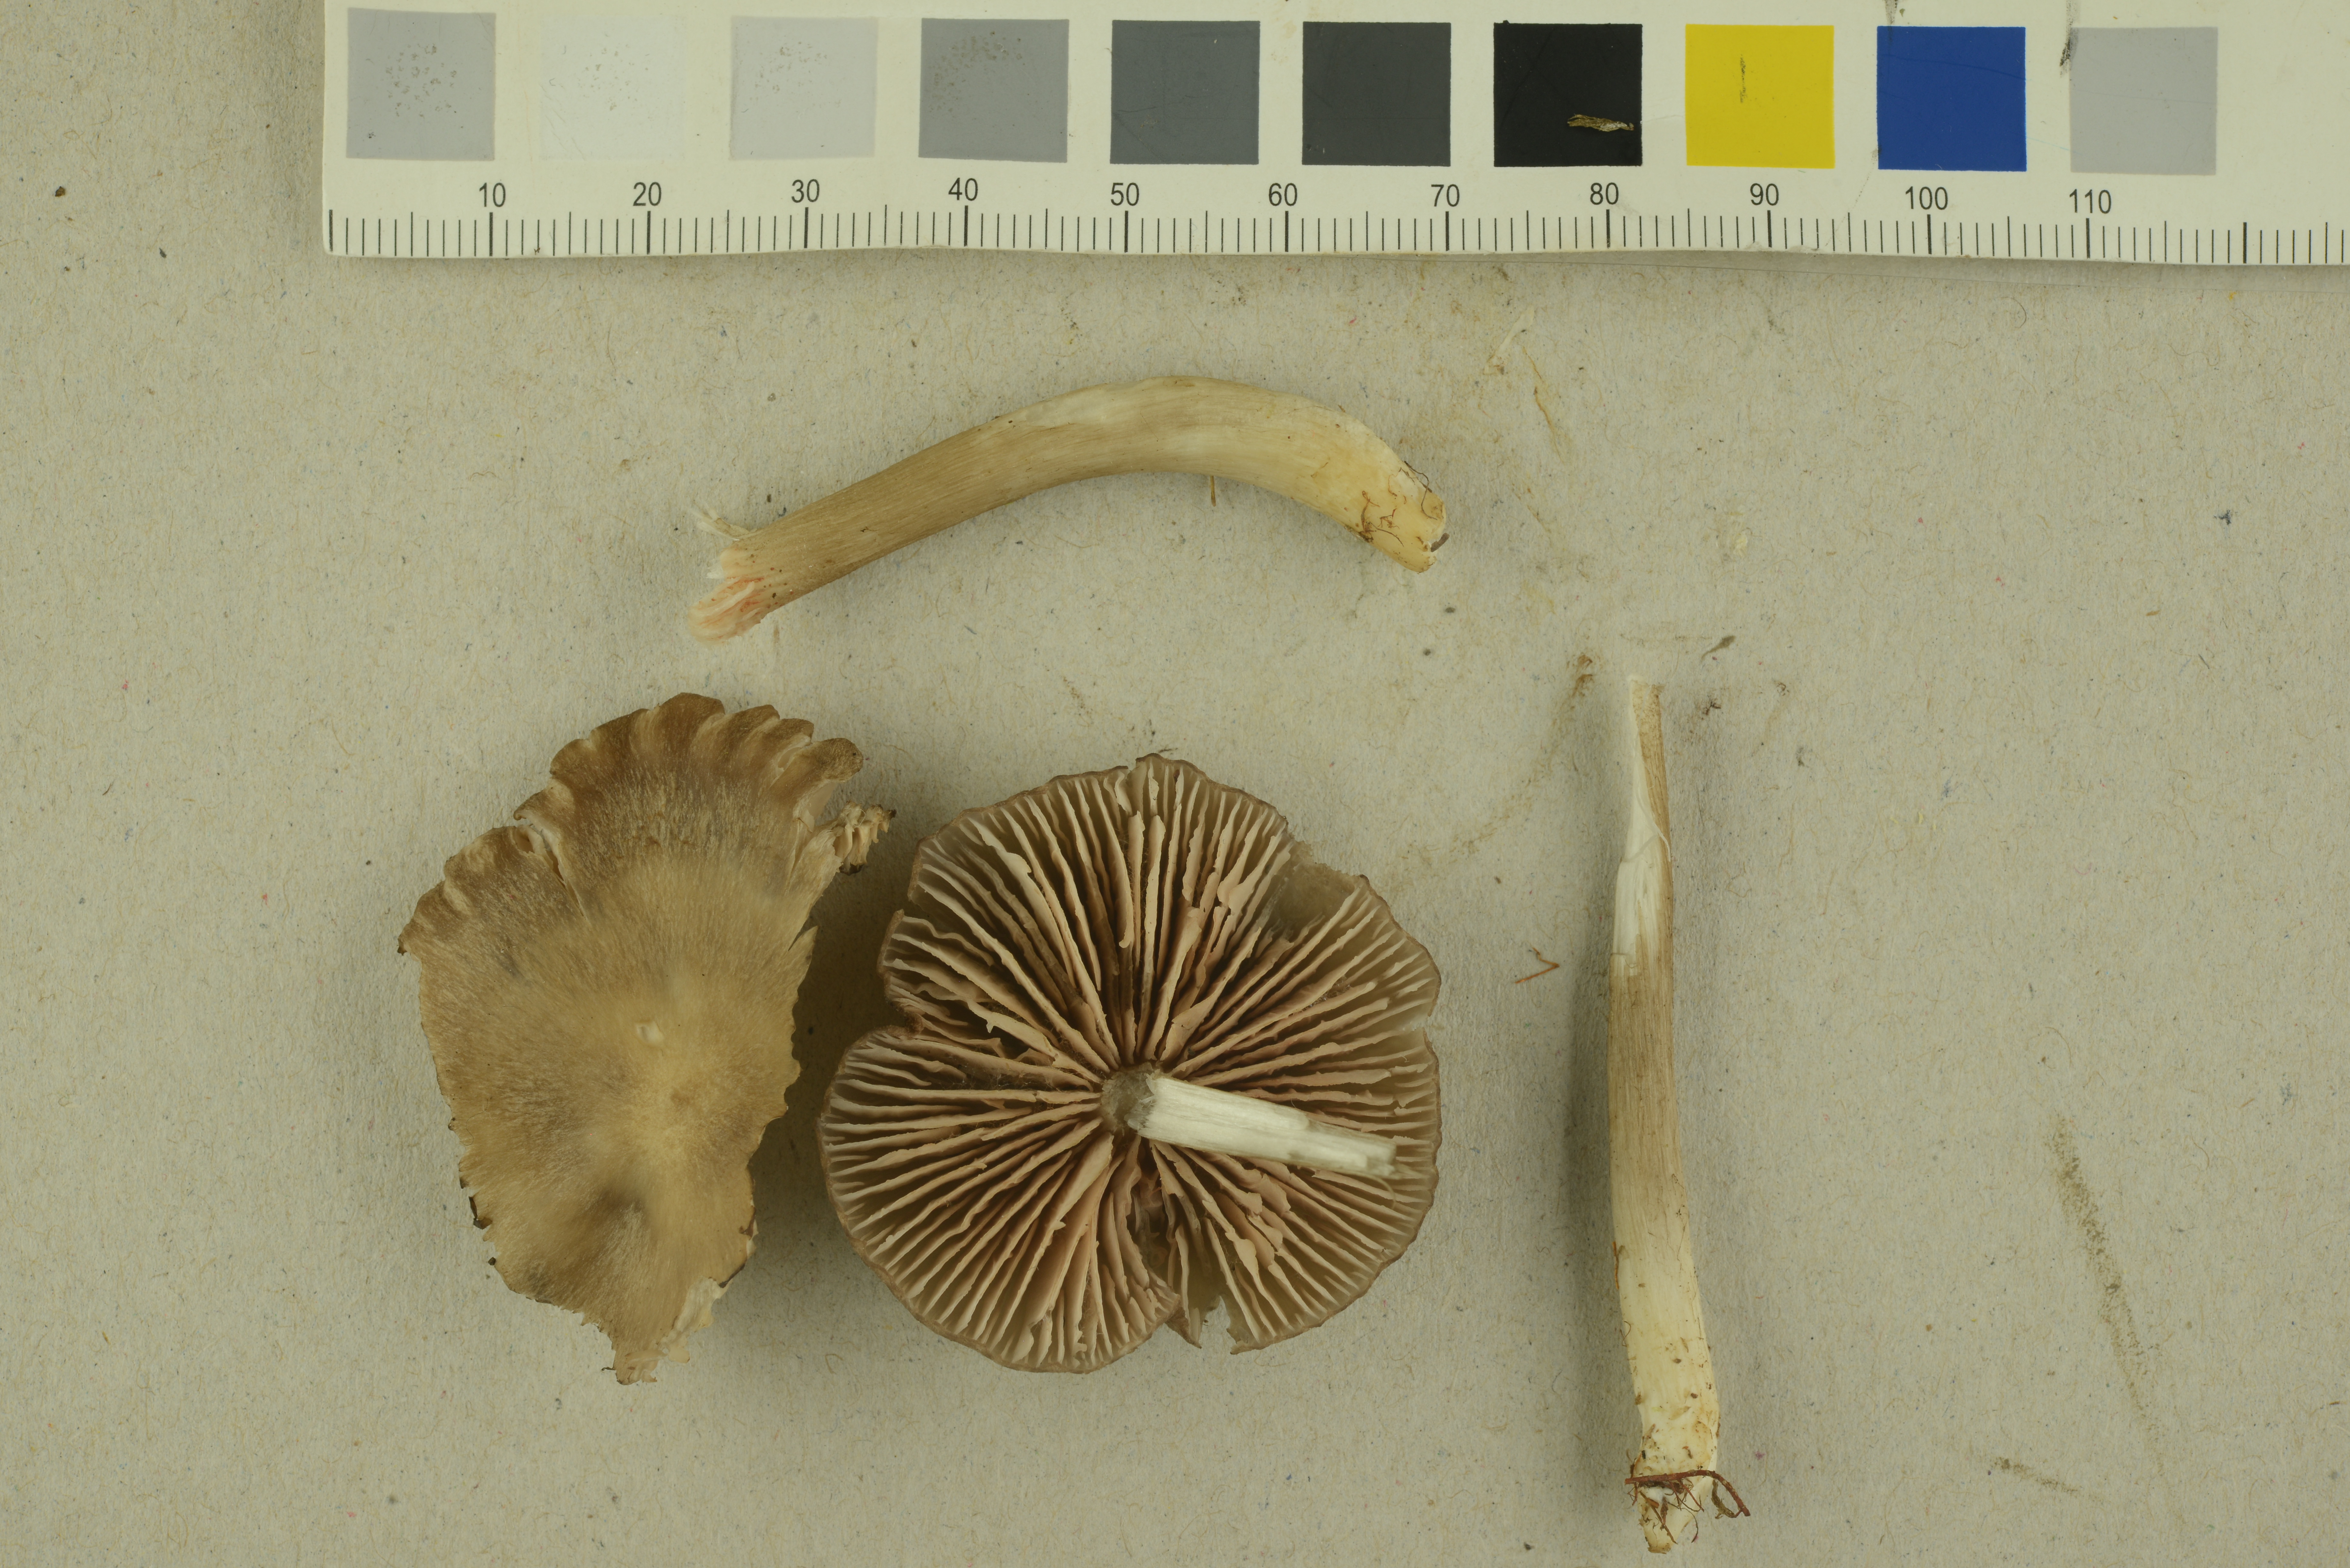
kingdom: Fungi
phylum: Basidiomycota
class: Agaricomycetes
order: Agaricales
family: Entolomataceae
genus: Entoloma
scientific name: Entoloma elodes
